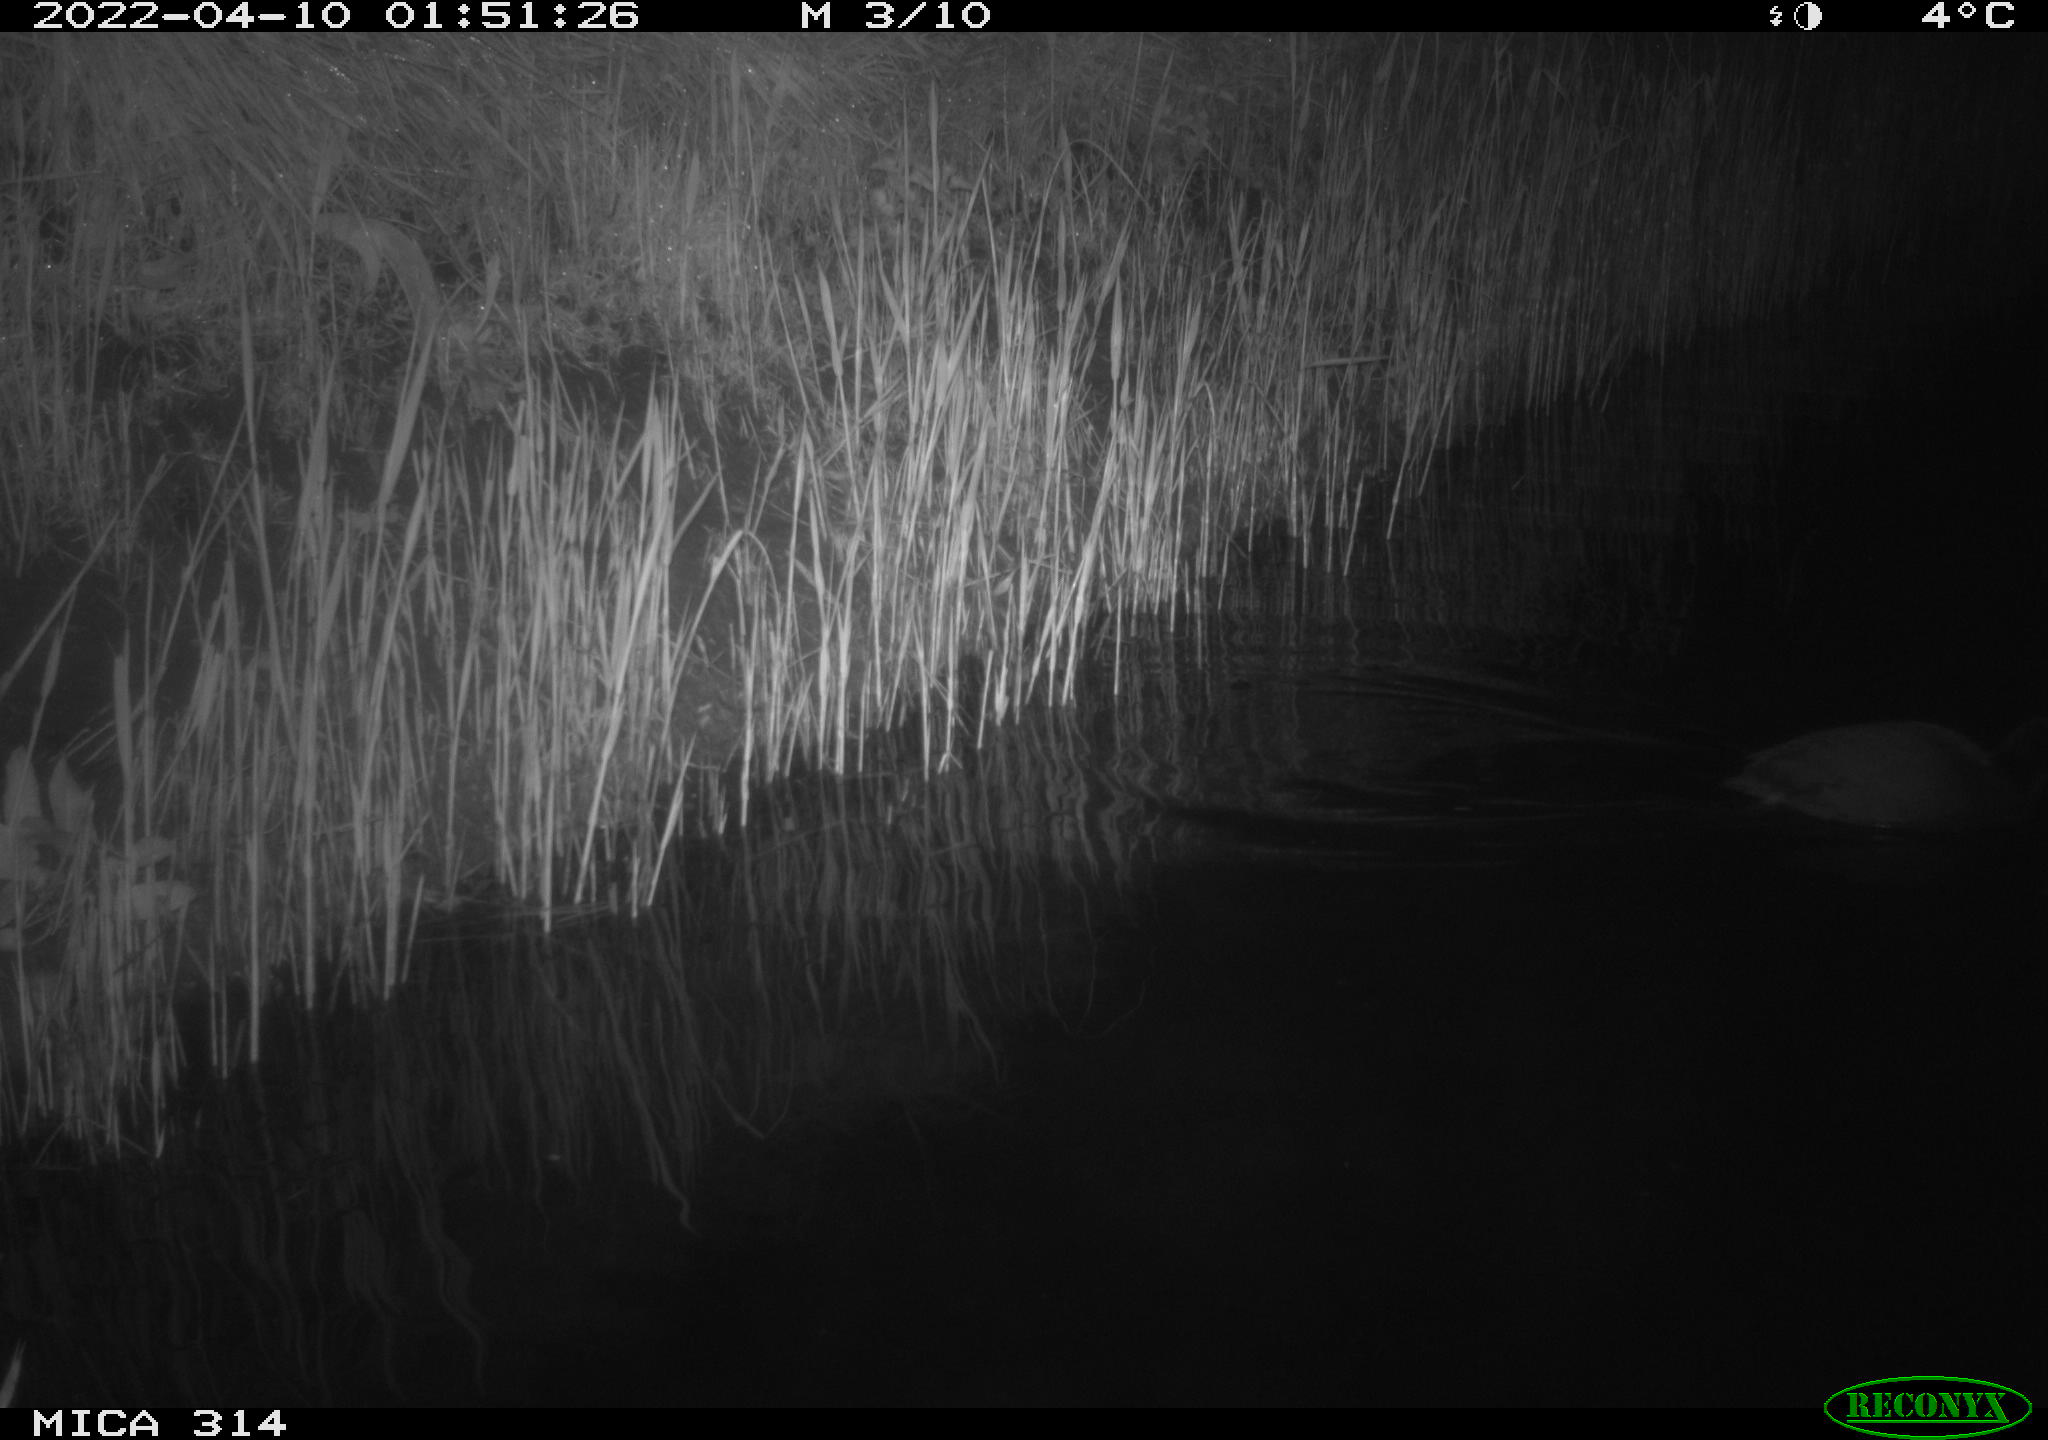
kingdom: Animalia
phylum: Chordata
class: Aves
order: Gruiformes
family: Rallidae
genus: Fulica
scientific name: Fulica atra
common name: Eurasian coot
